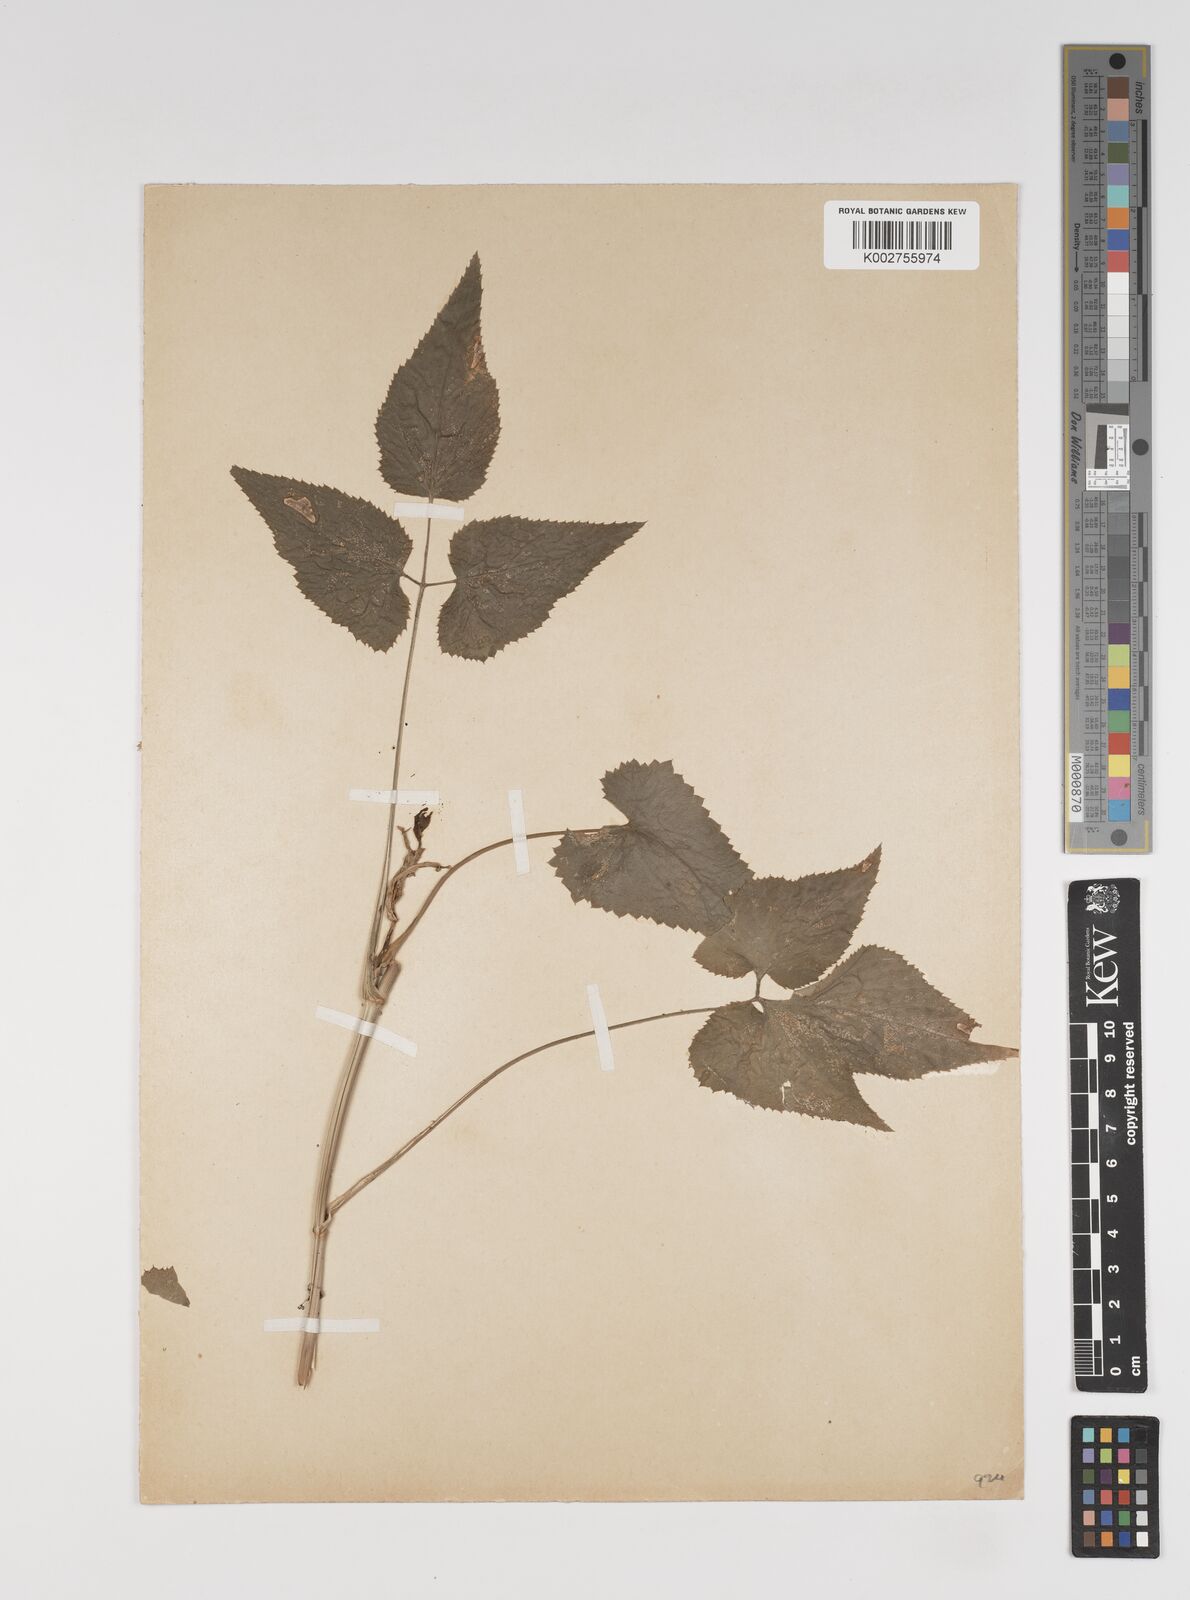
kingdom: Plantae
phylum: Tracheophyta
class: Magnoliopsida
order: Apiales
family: Apiaceae
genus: Pimpinella
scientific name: Pimpinella wallichiana
